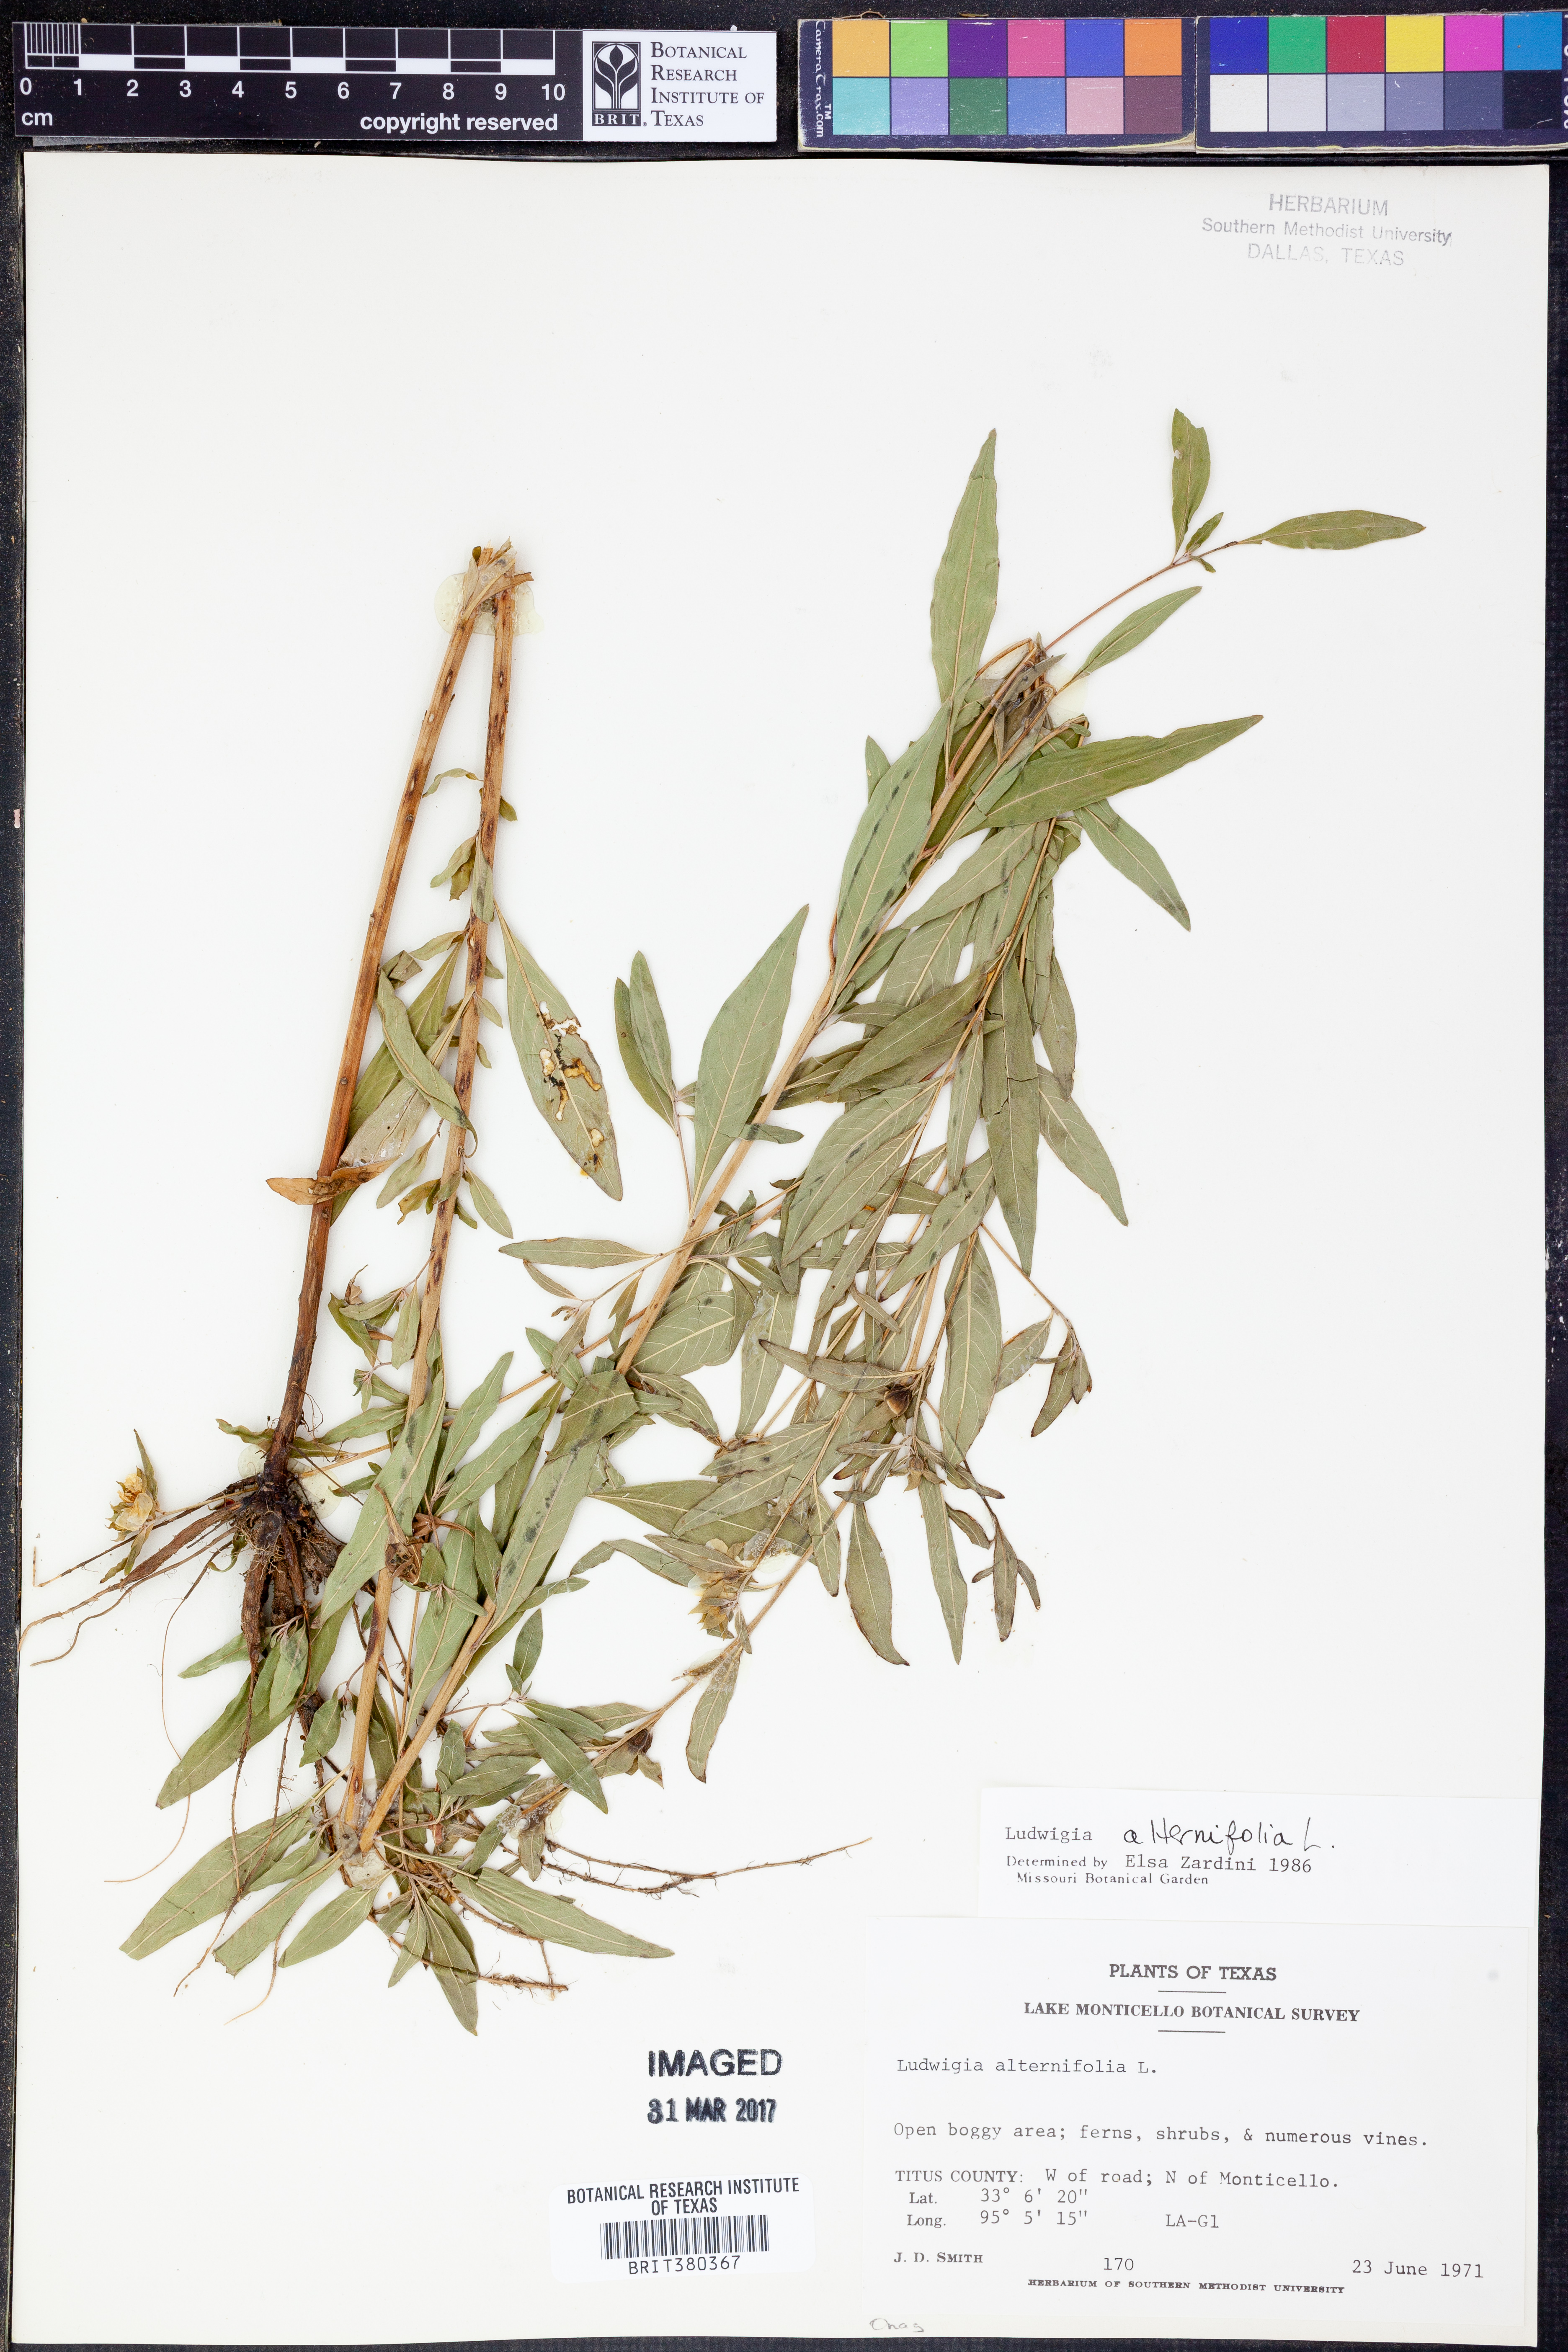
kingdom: Plantae
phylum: Tracheophyta
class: Magnoliopsida
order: Myrtales
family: Onagraceae
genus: Ludwigia
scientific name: Ludwigia alternifolia
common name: Rattlebox
